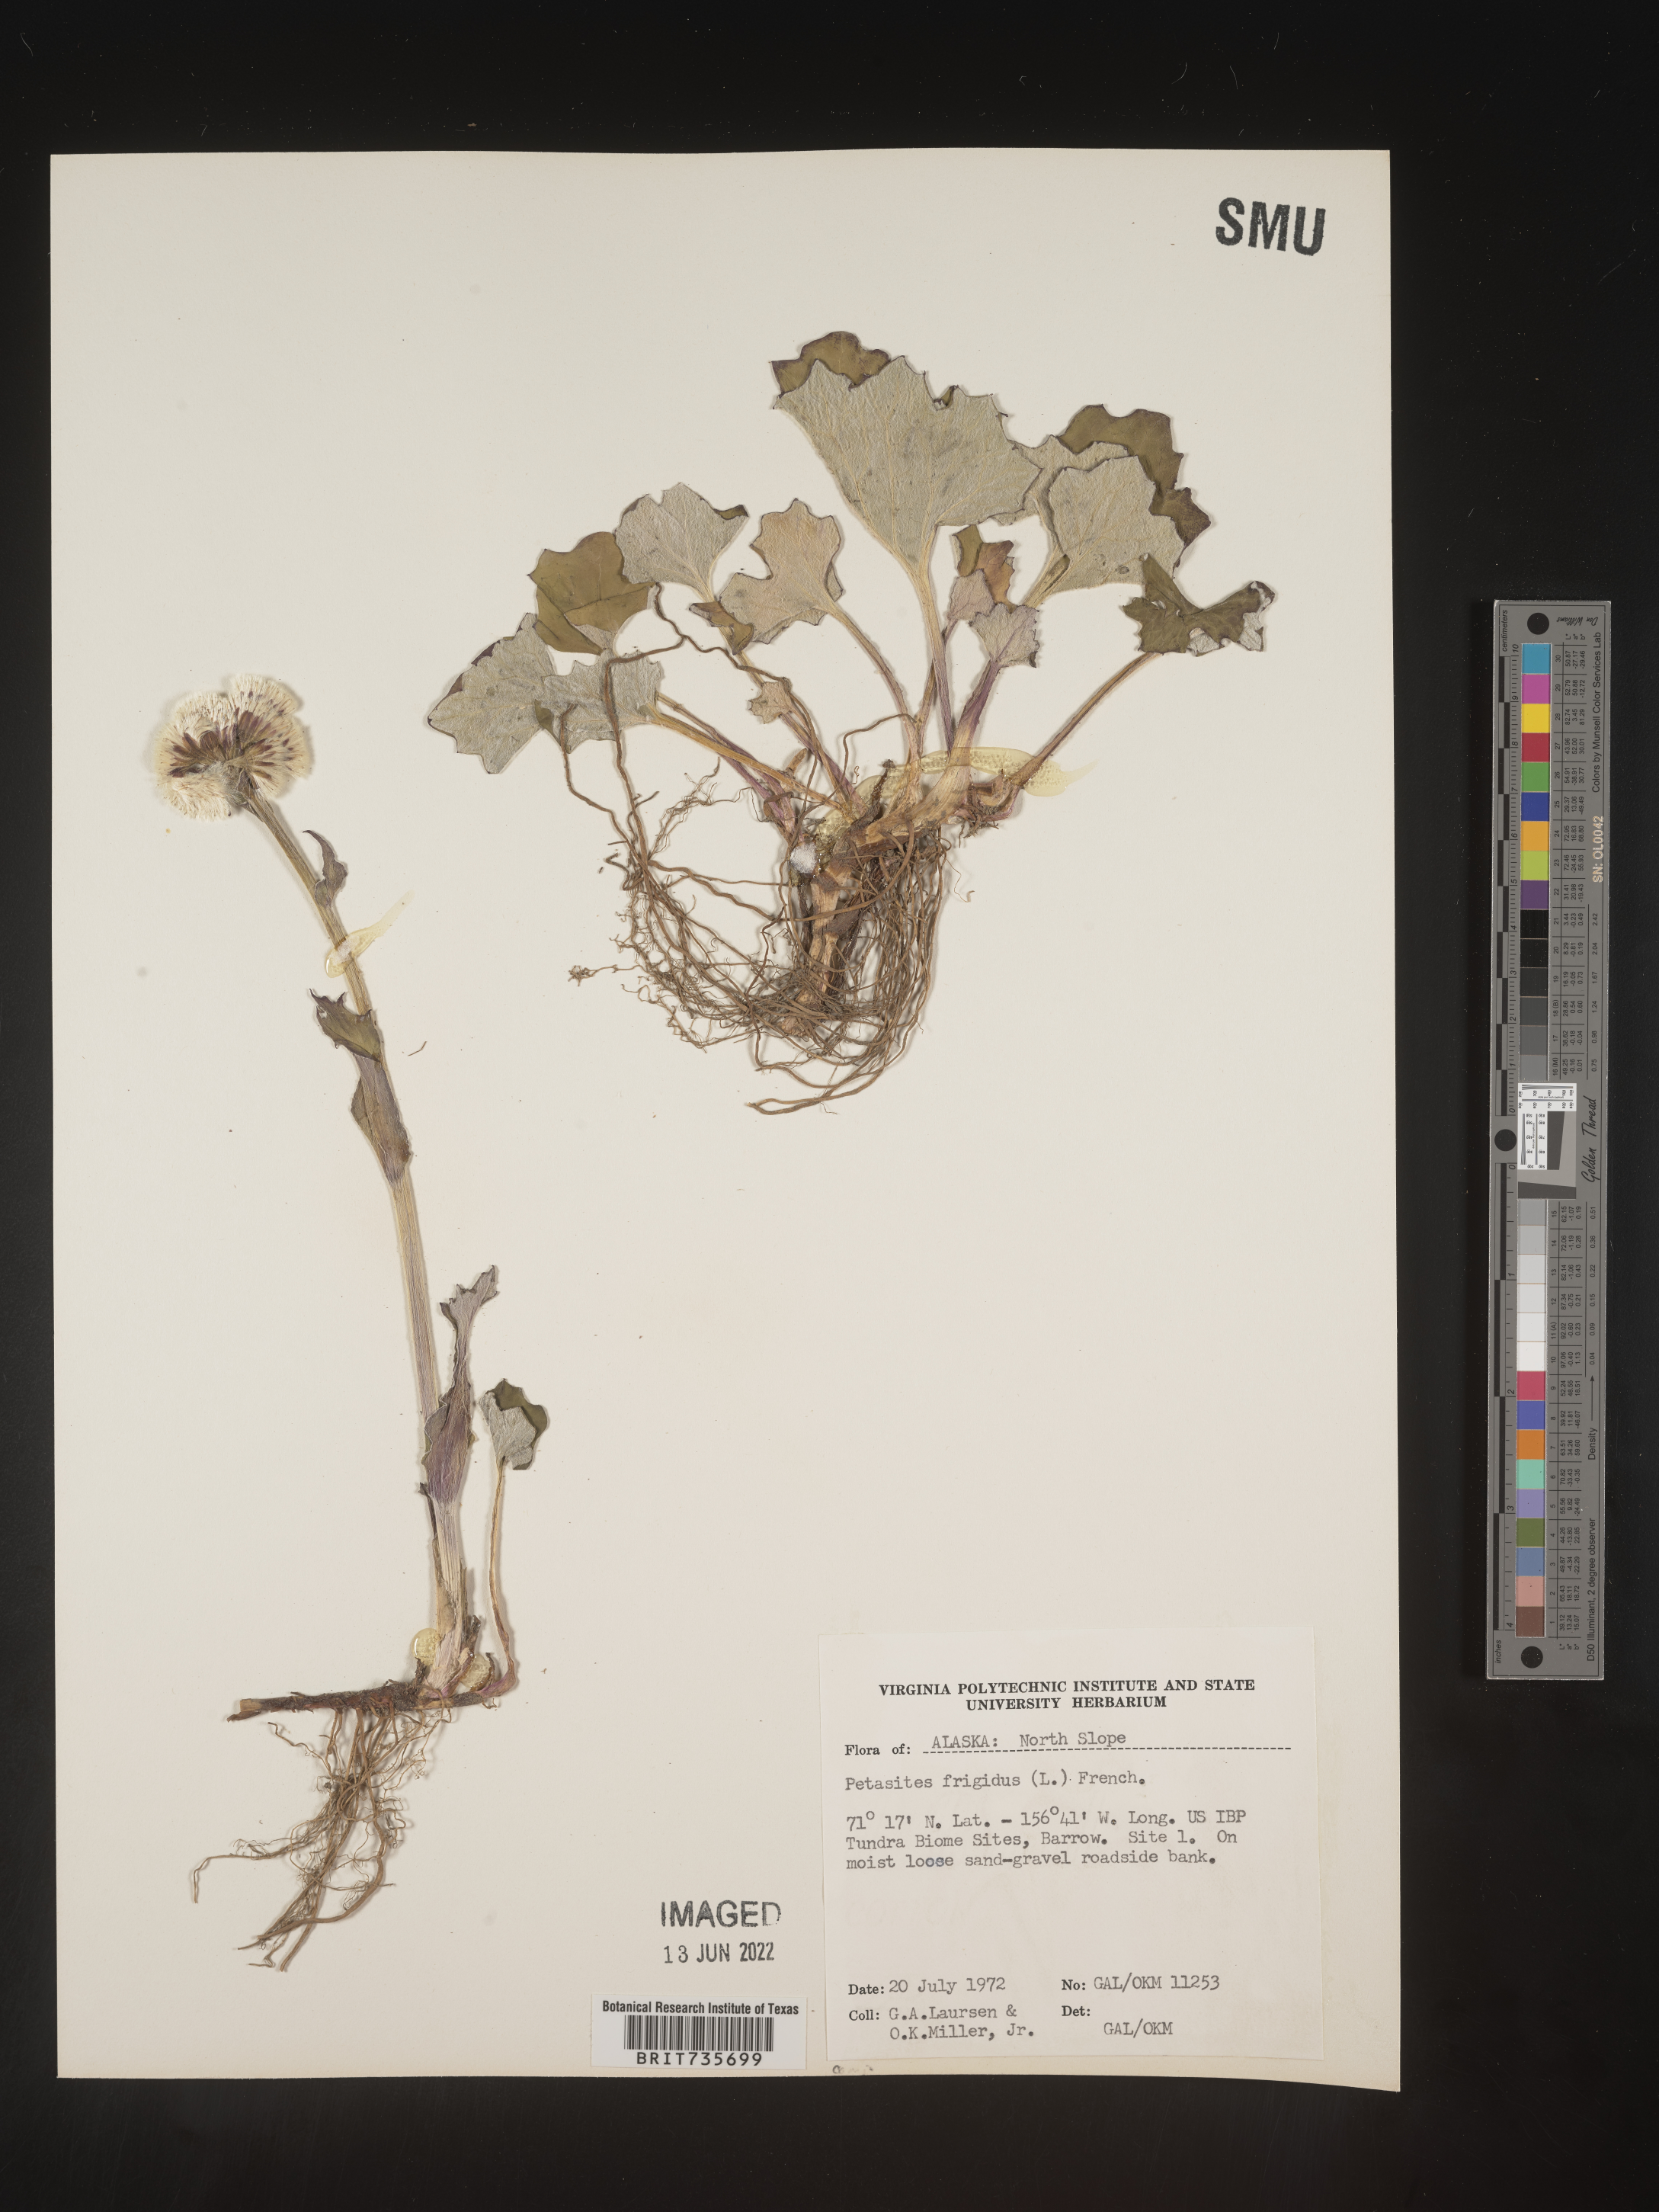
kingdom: Plantae
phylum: Tracheophyta
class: Magnoliopsida
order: Asterales
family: Asteraceae
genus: Petasites
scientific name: Petasites frigidus
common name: Arctic butterbur
